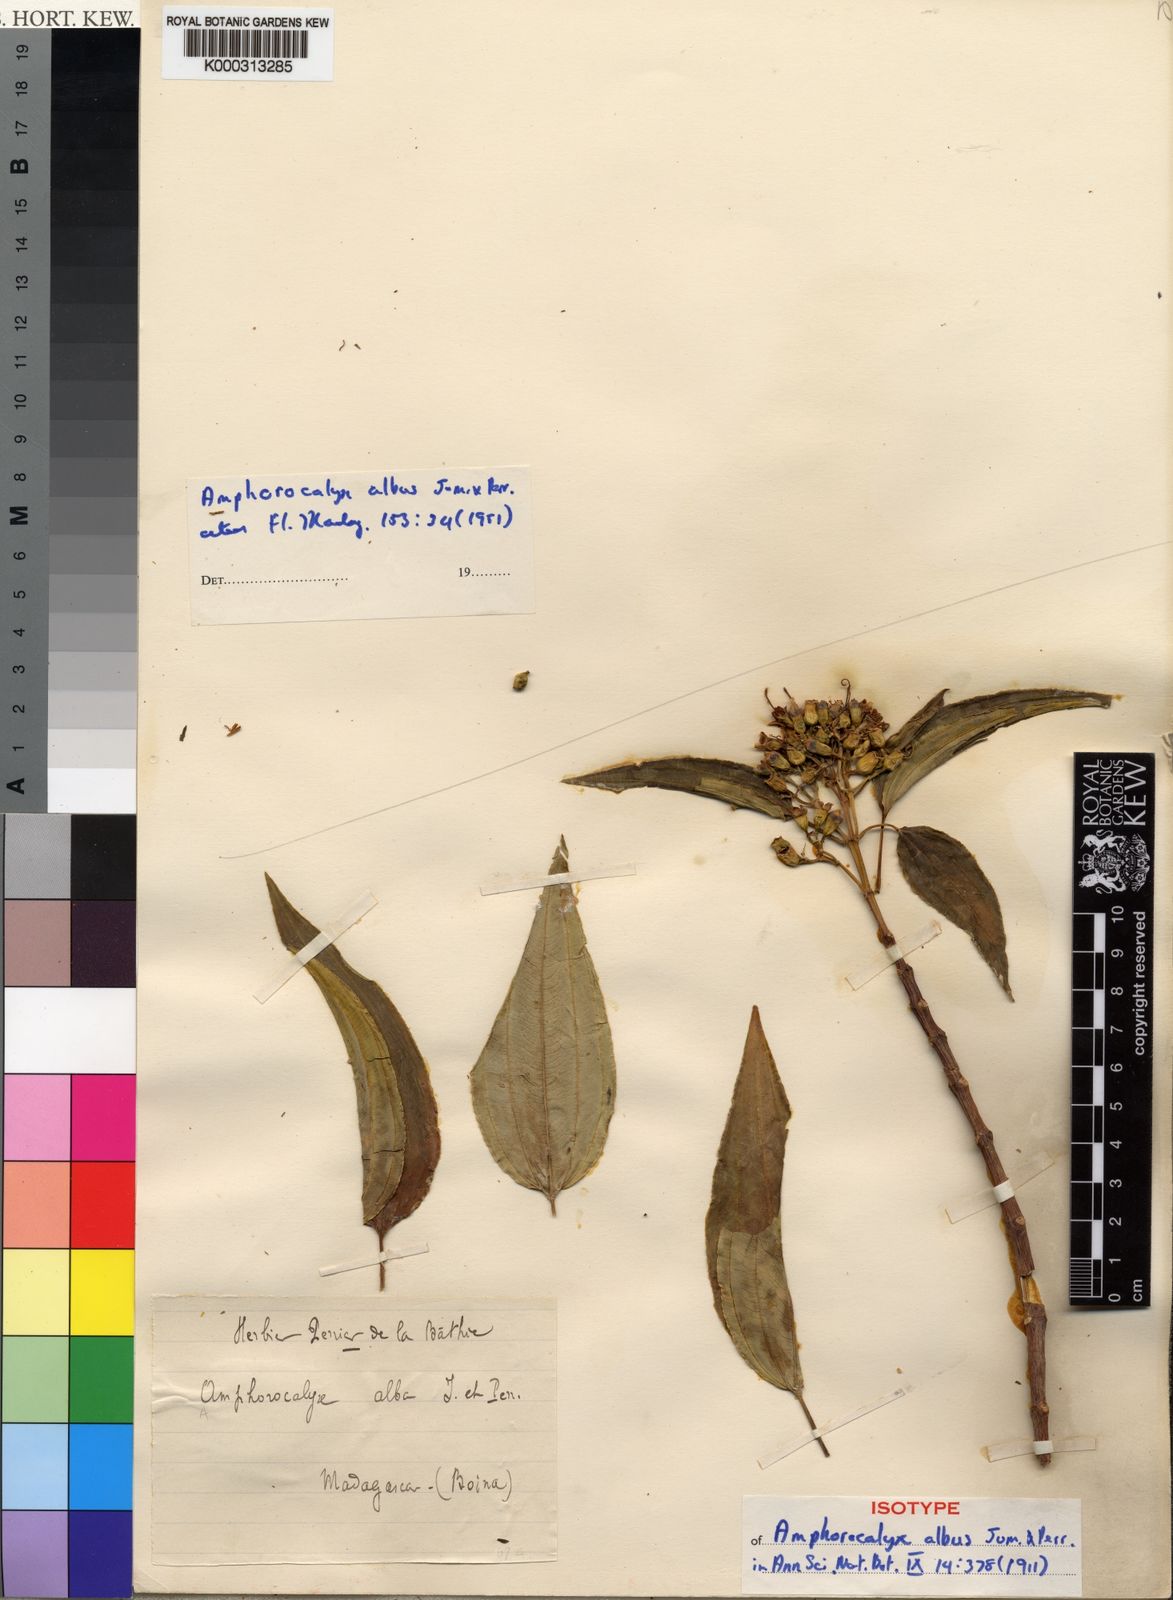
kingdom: Plantae
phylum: Tracheophyta
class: Magnoliopsida
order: Myrtales
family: Melastomataceae
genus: Amphorocalyx
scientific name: Amphorocalyx albus
